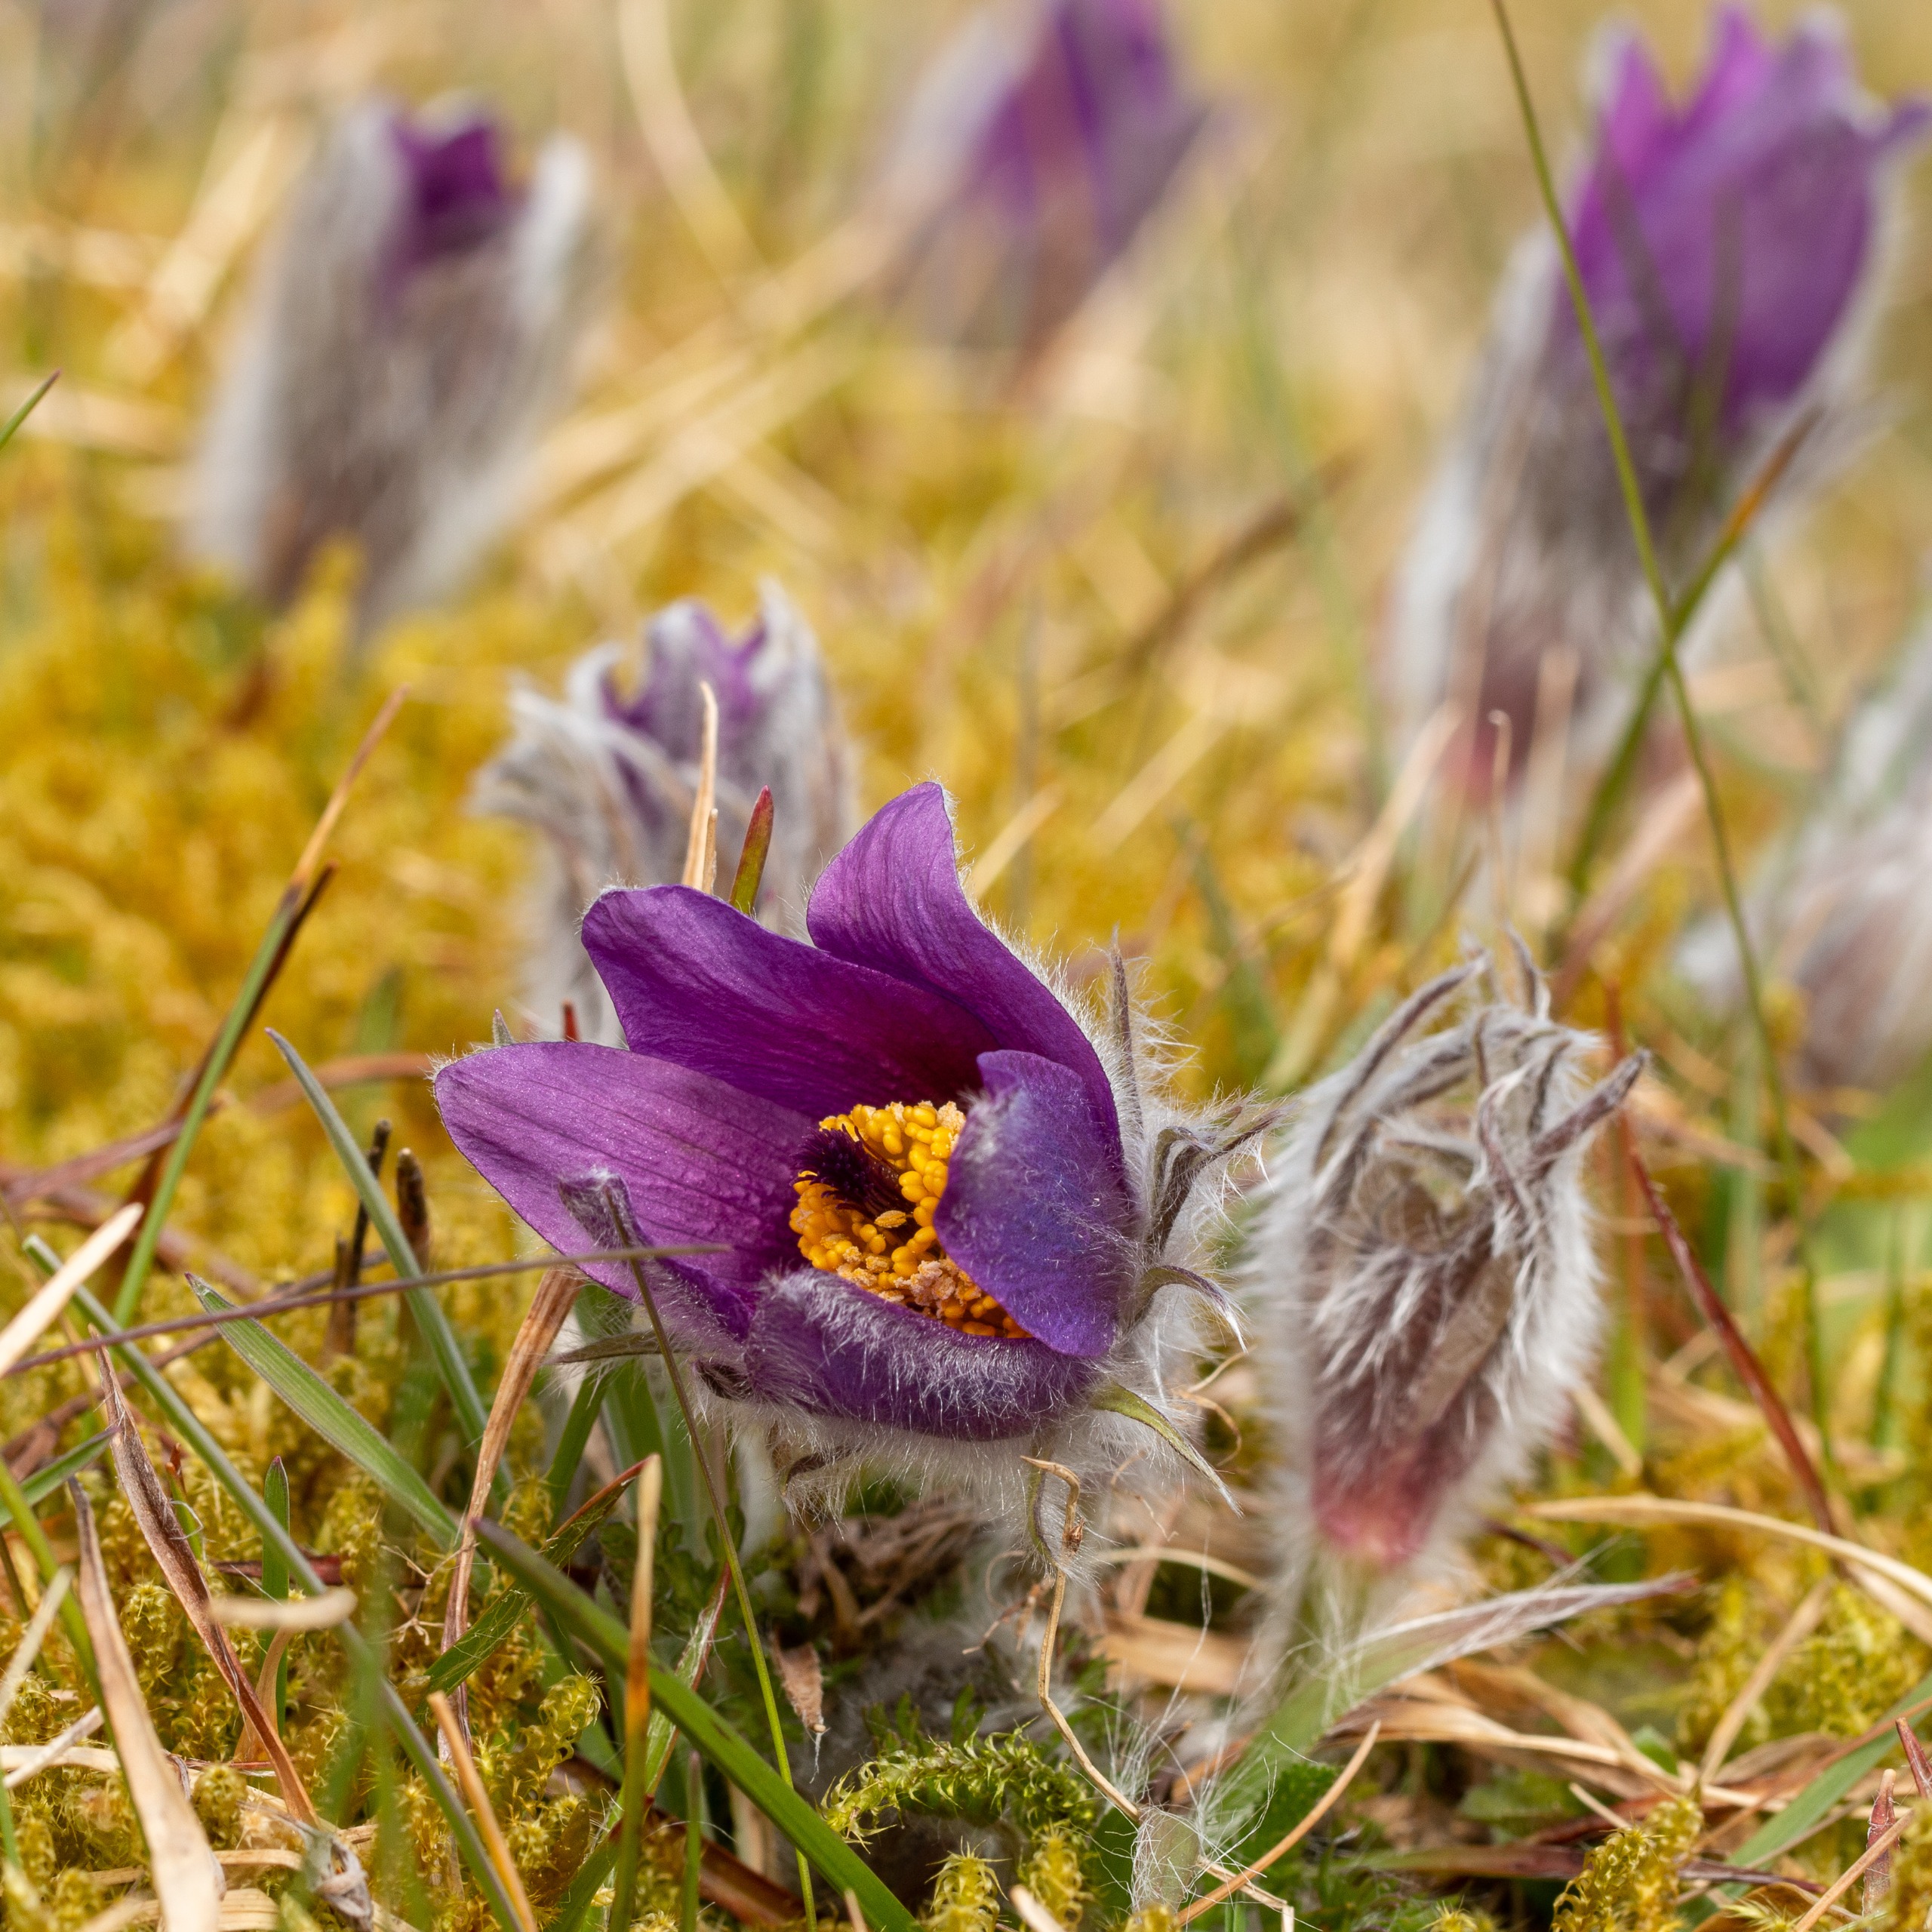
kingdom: Plantae
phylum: Tracheophyta
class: Magnoliopsida
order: Ranunculales
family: Ranunculaceae
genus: Pulsatilla
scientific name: Pulsatilla vulgaris
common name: Opret kobjælde
